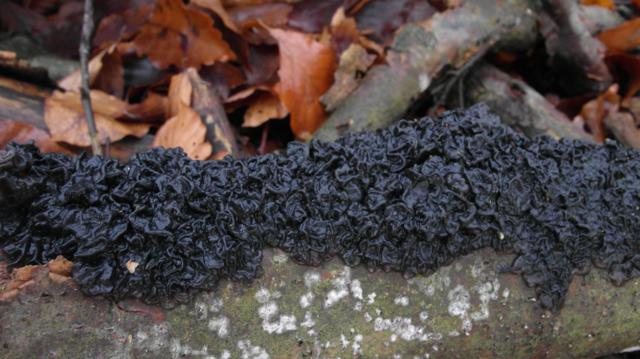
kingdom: Fungi
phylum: Basidiomycota
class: Agaricomycetes
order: Auriculariales
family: Auriculariaceae
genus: Exidia
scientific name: Exidia nigricans
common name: almindelig bævretop
